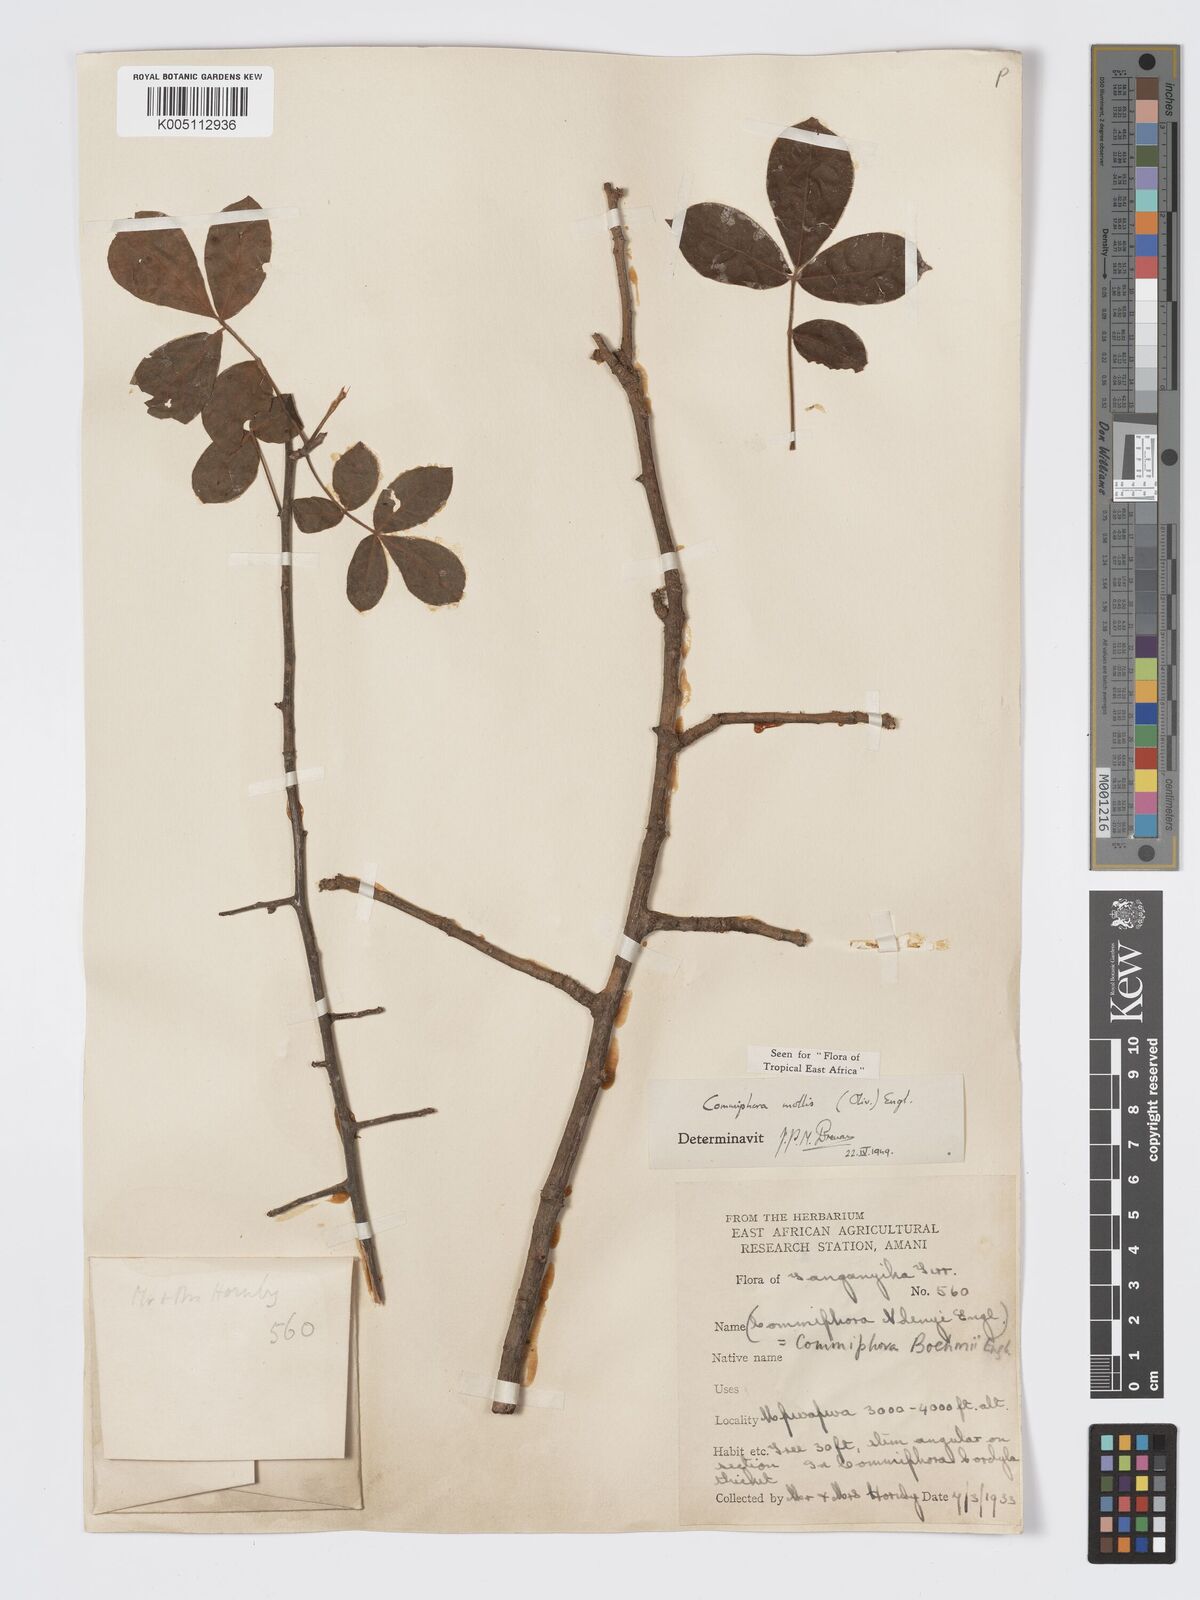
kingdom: Plantae
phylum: Tracheophyta
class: Magnoliopsida
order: Sapindales
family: Burseraceae
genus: Commiphora
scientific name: Commiphora
